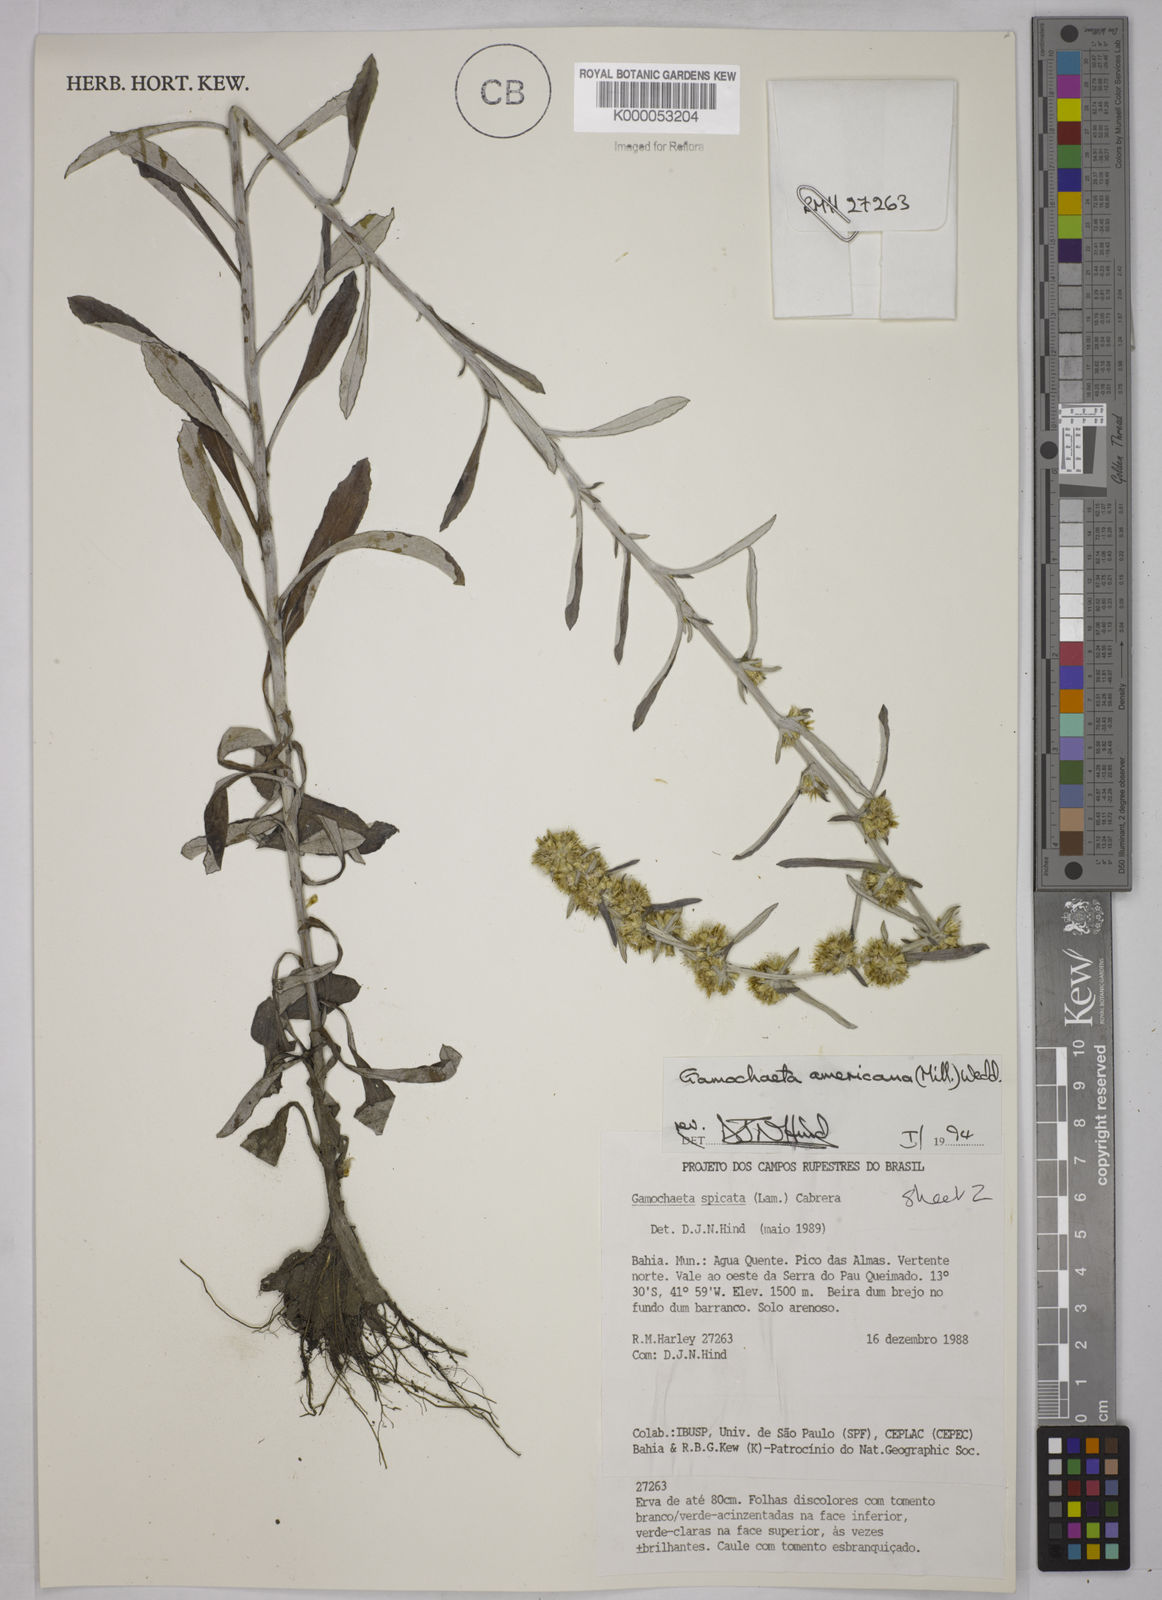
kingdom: Plantae
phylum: Tracheophyta
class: Magnoliopsida
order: Asterales
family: Asteraceae
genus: Gamochaeta
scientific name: Gamochaeta americana
